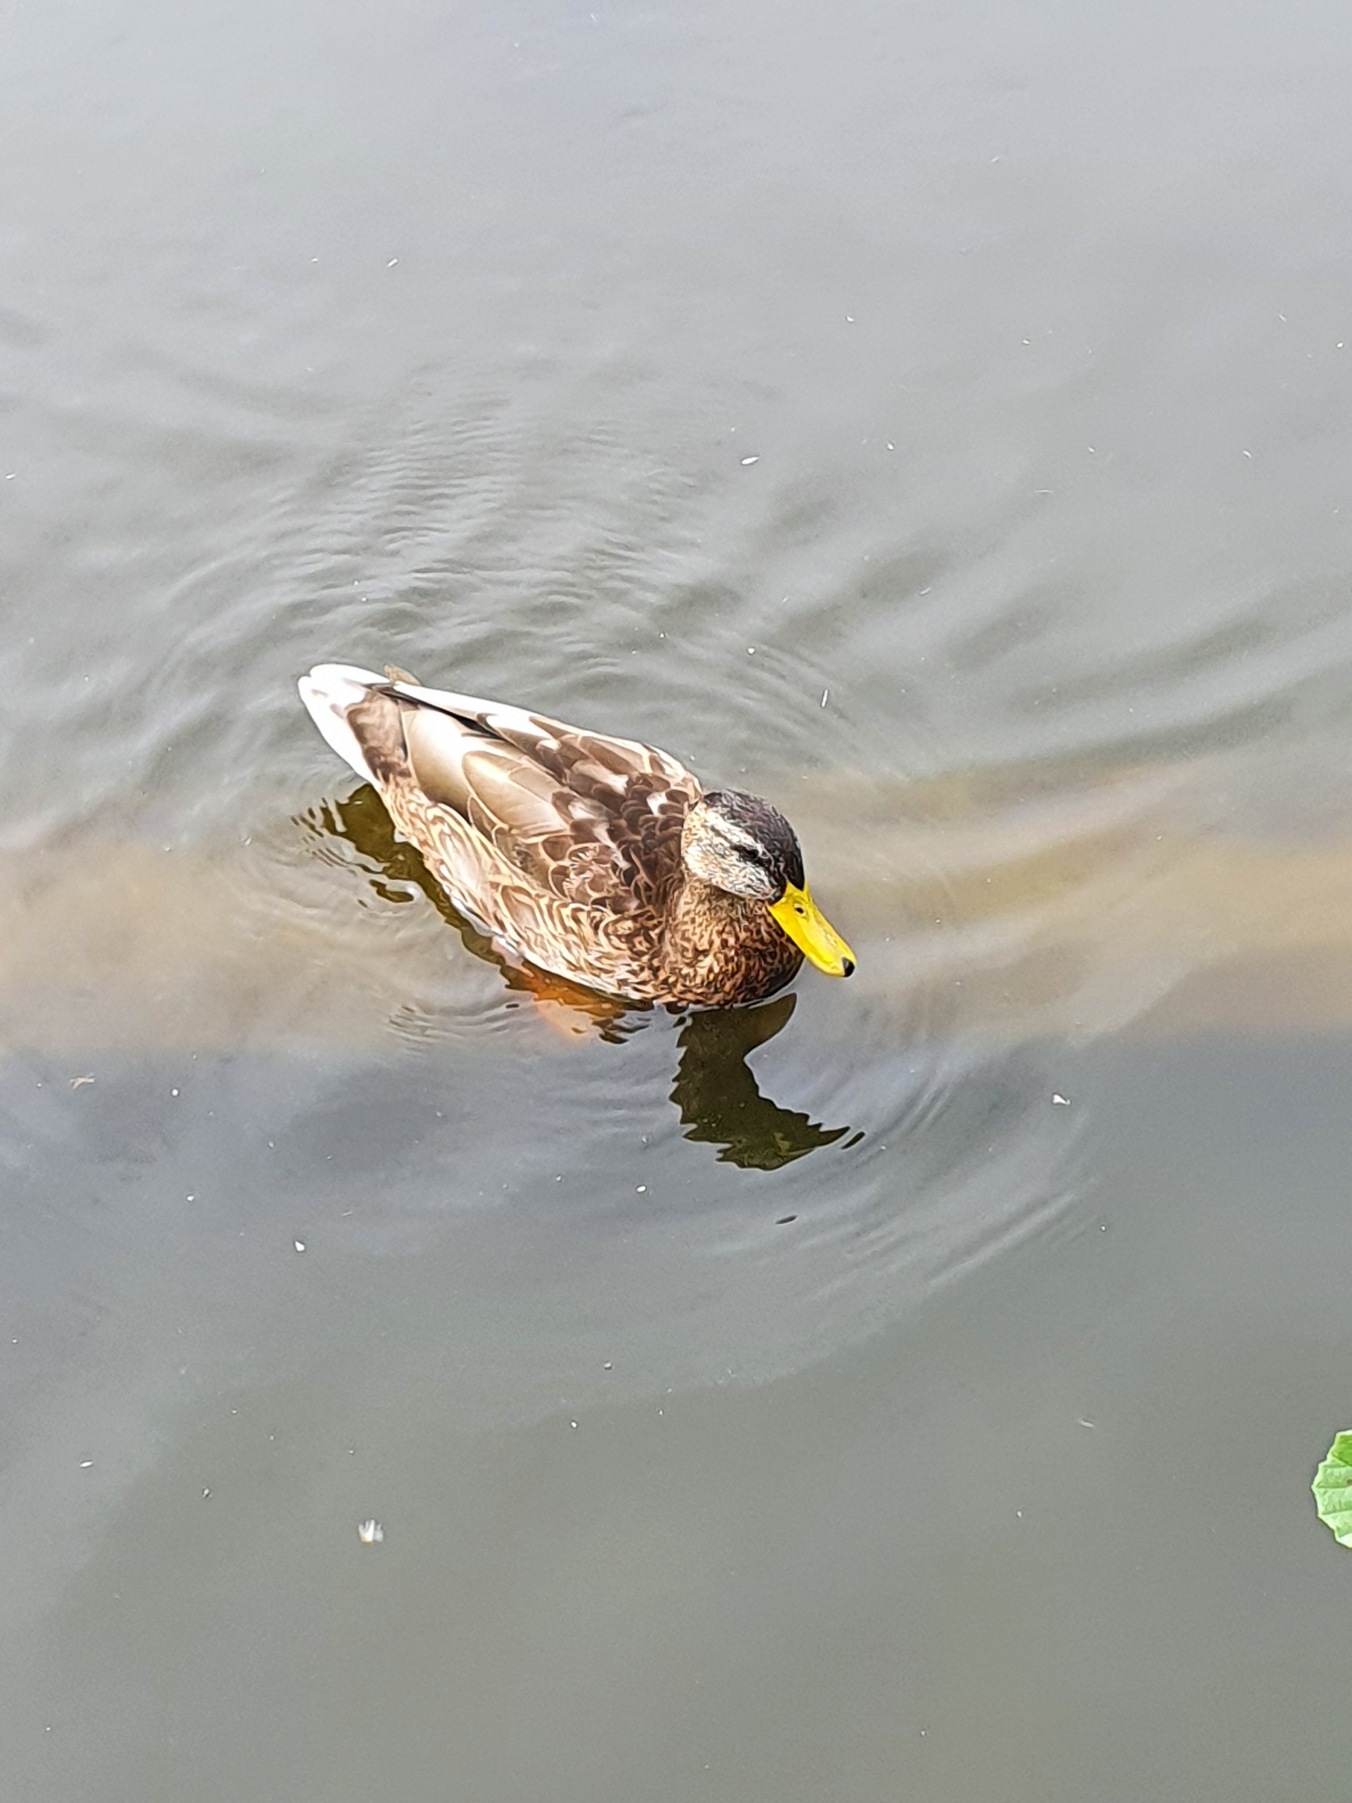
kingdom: Animalia
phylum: Chordata
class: Aves
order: Anseriformes
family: Anatidae
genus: Anas
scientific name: Anas platyrhynchos
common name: Gråand
